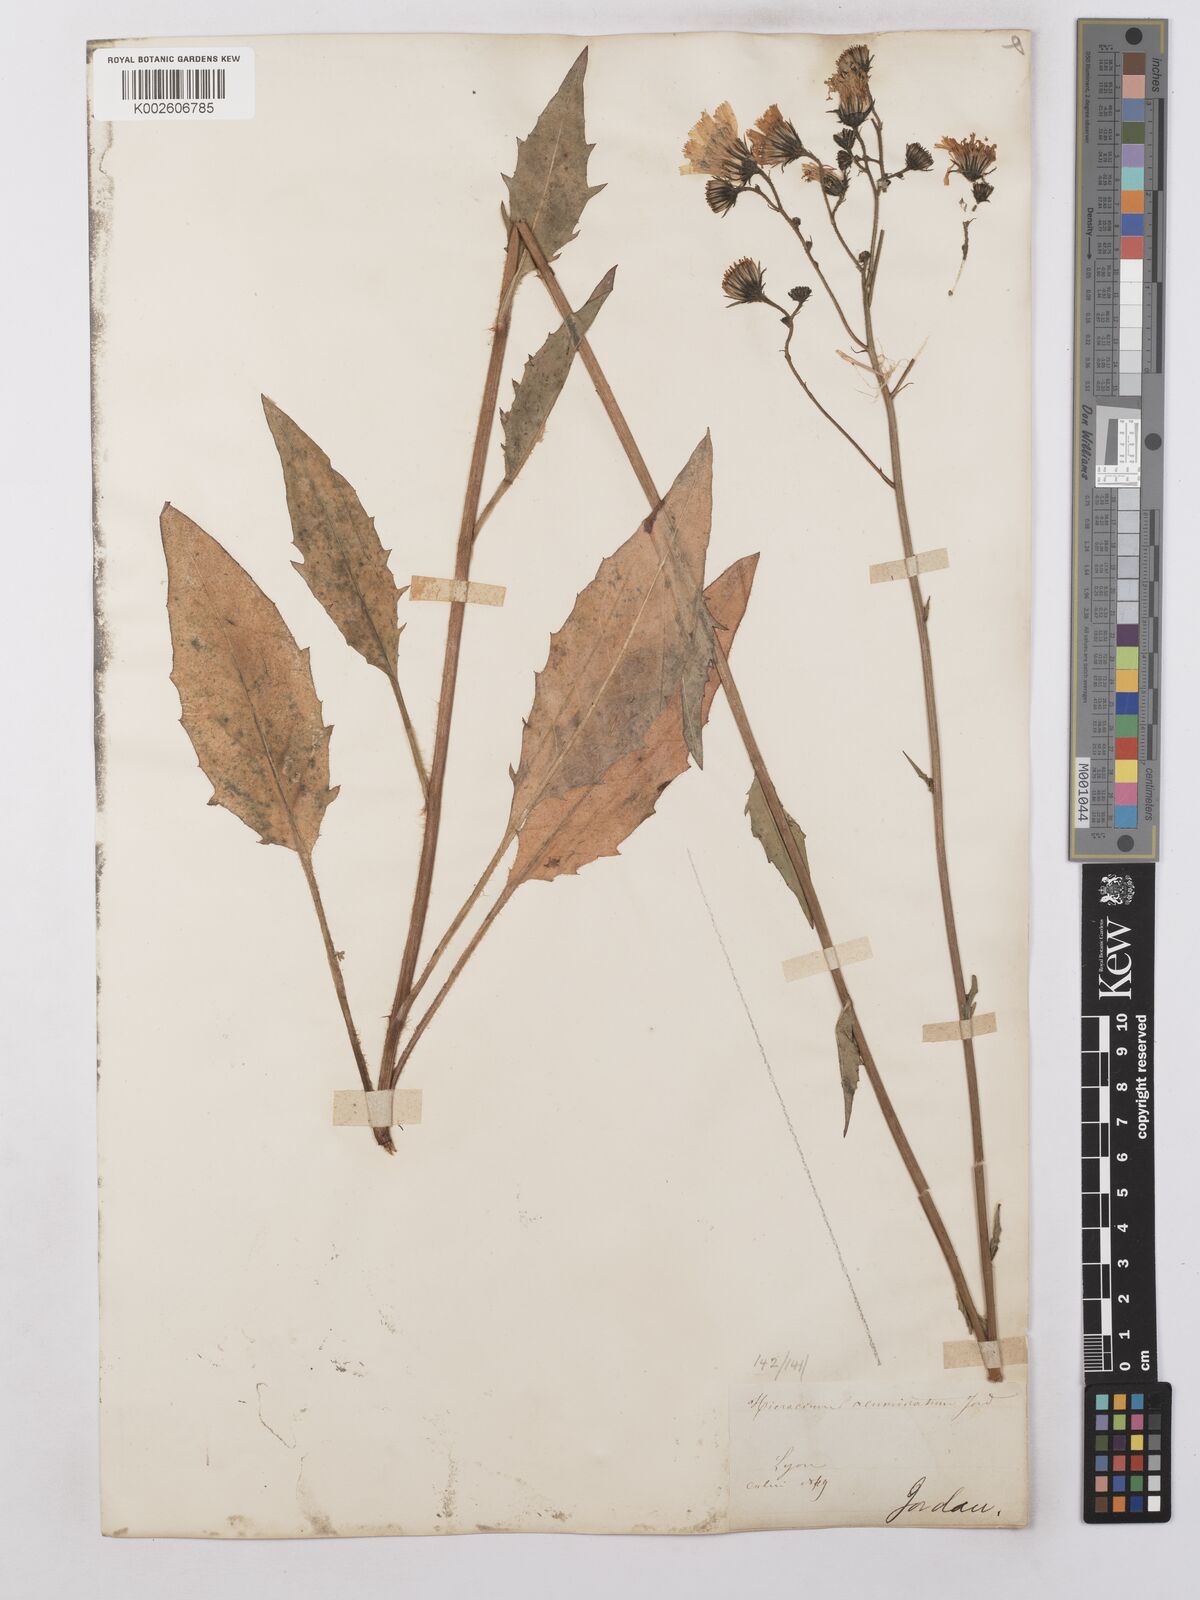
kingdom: Plantae
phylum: Tracheophyta
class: Magnoliopsida
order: Asterales
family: Asteraceae
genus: Hieracium
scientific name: Hieracium lachenalii
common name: Common hawkweed
